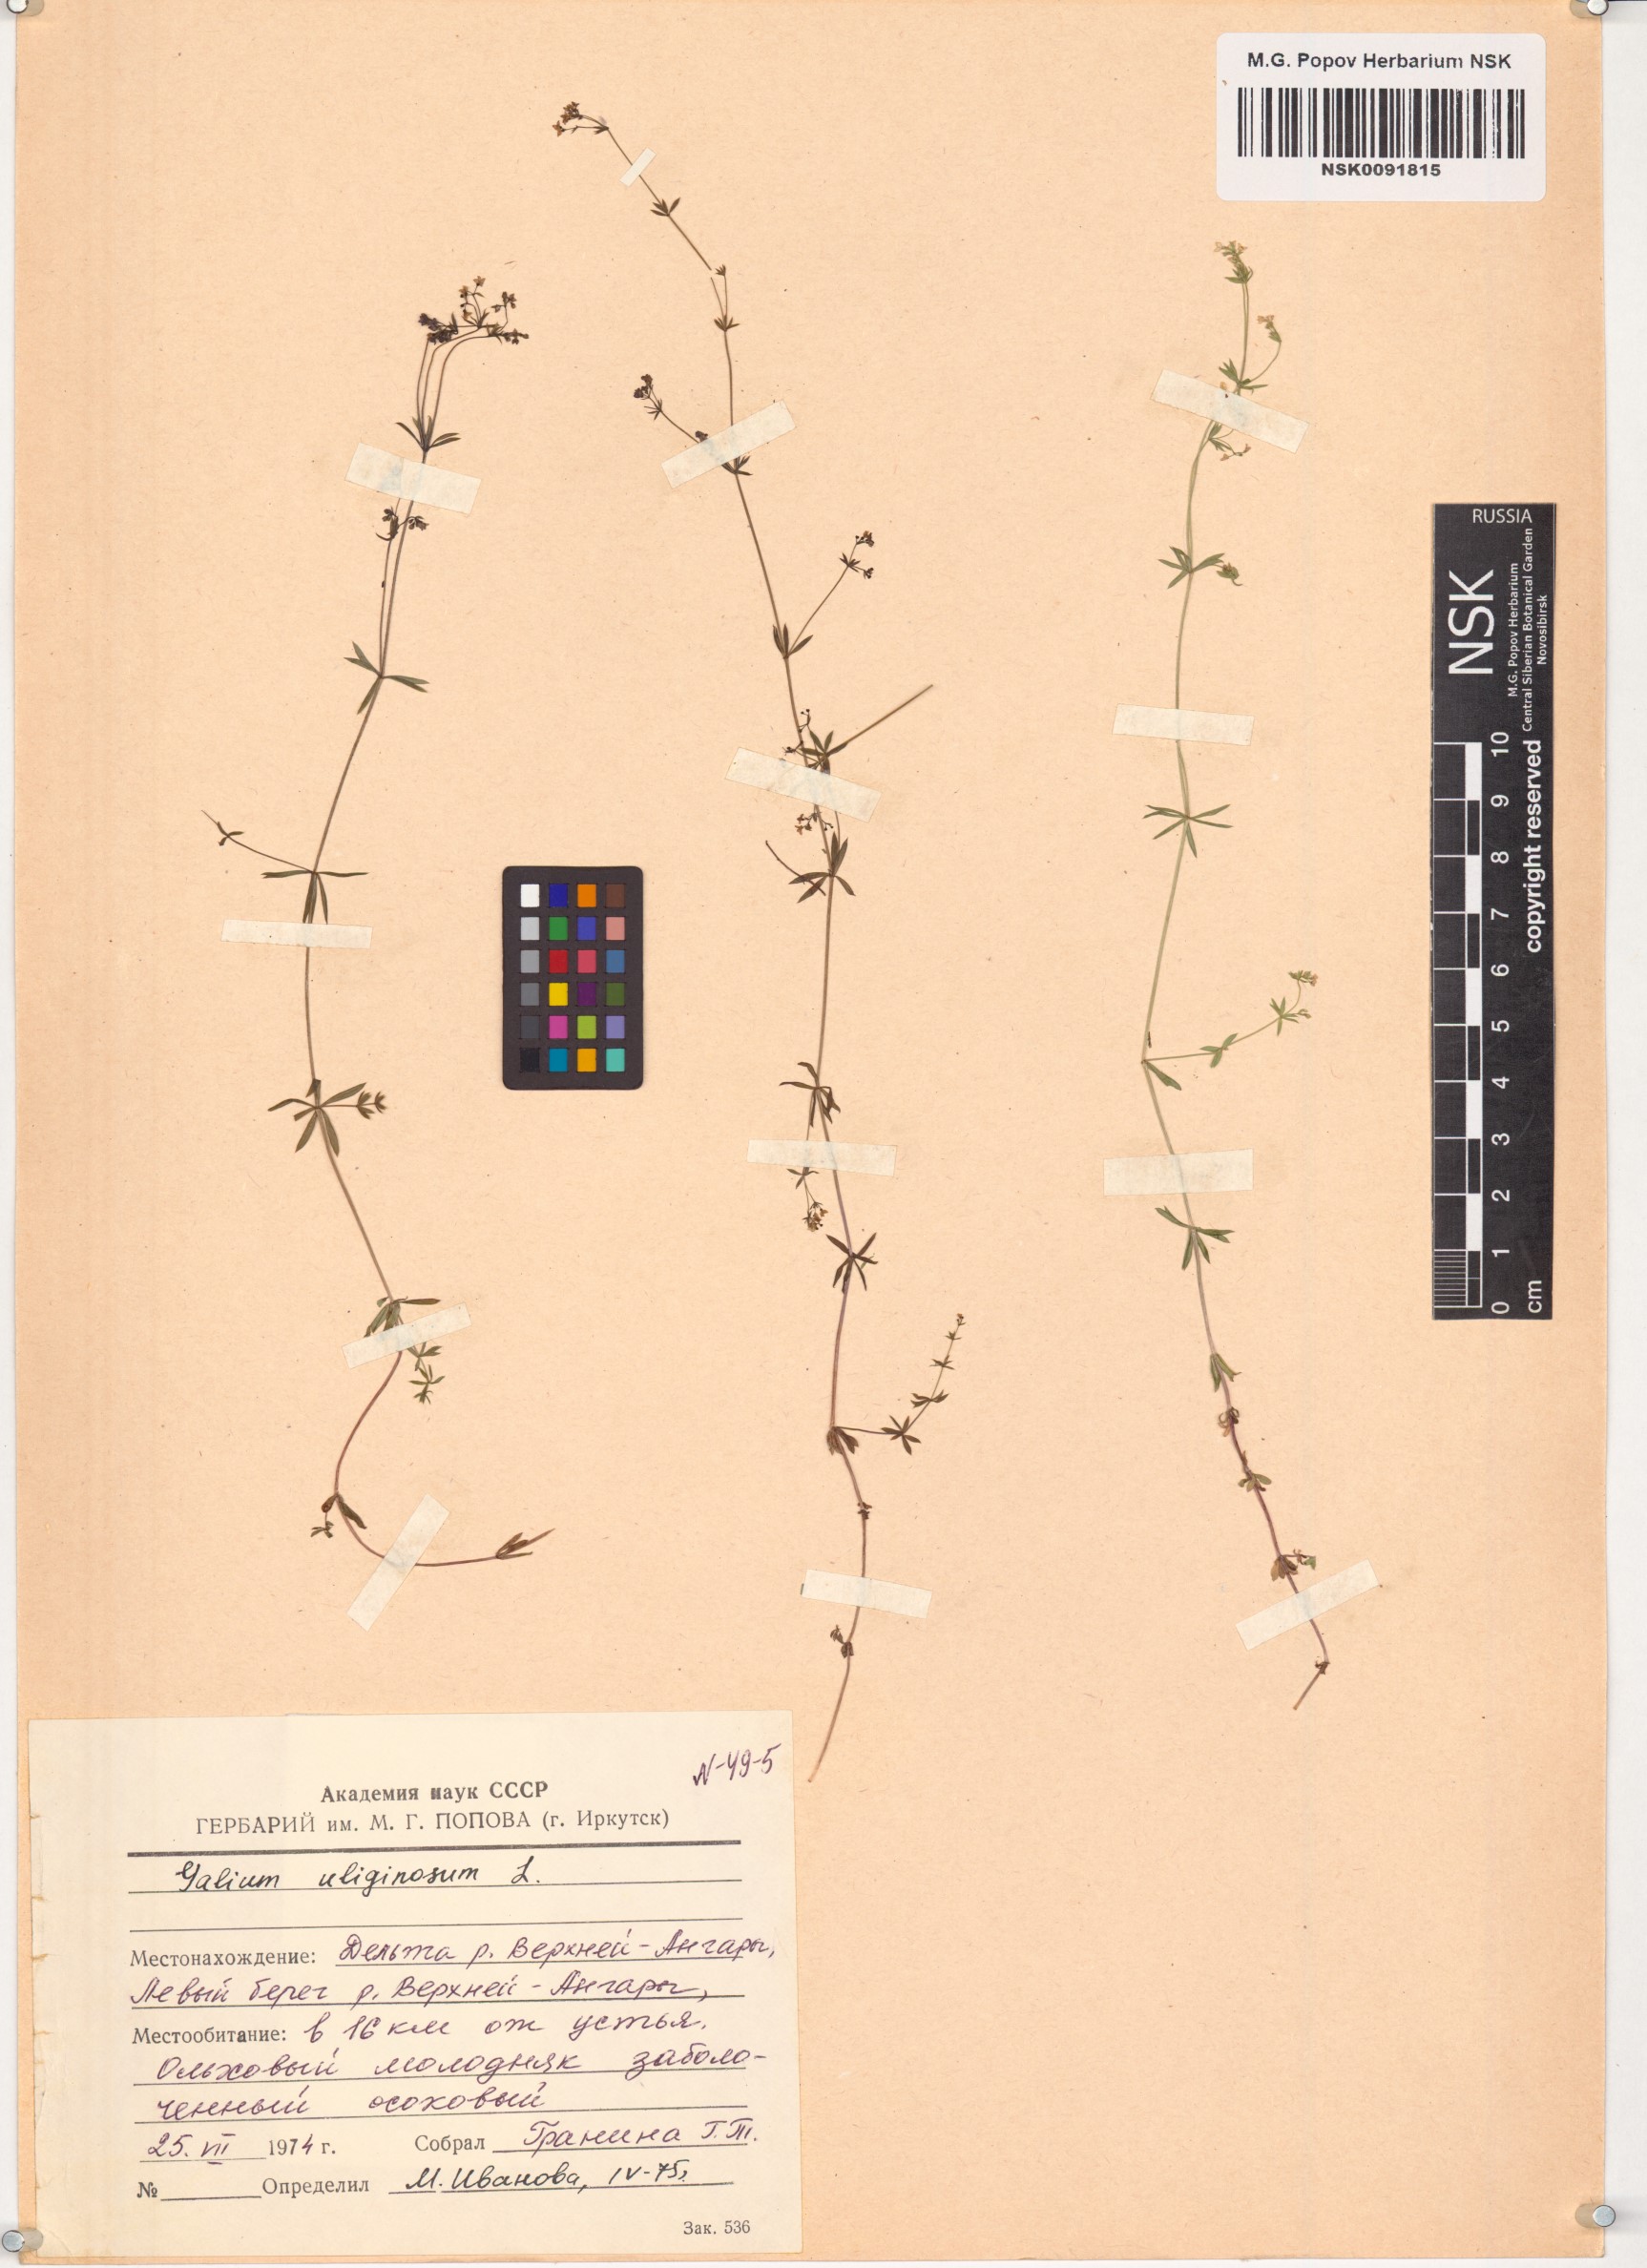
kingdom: Plantae
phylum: Tracheophyta
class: Magnoliopsida
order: Gentianales
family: Rubiaceae
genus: Galium
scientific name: Galium uliginosum
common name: Fen bedstraw
